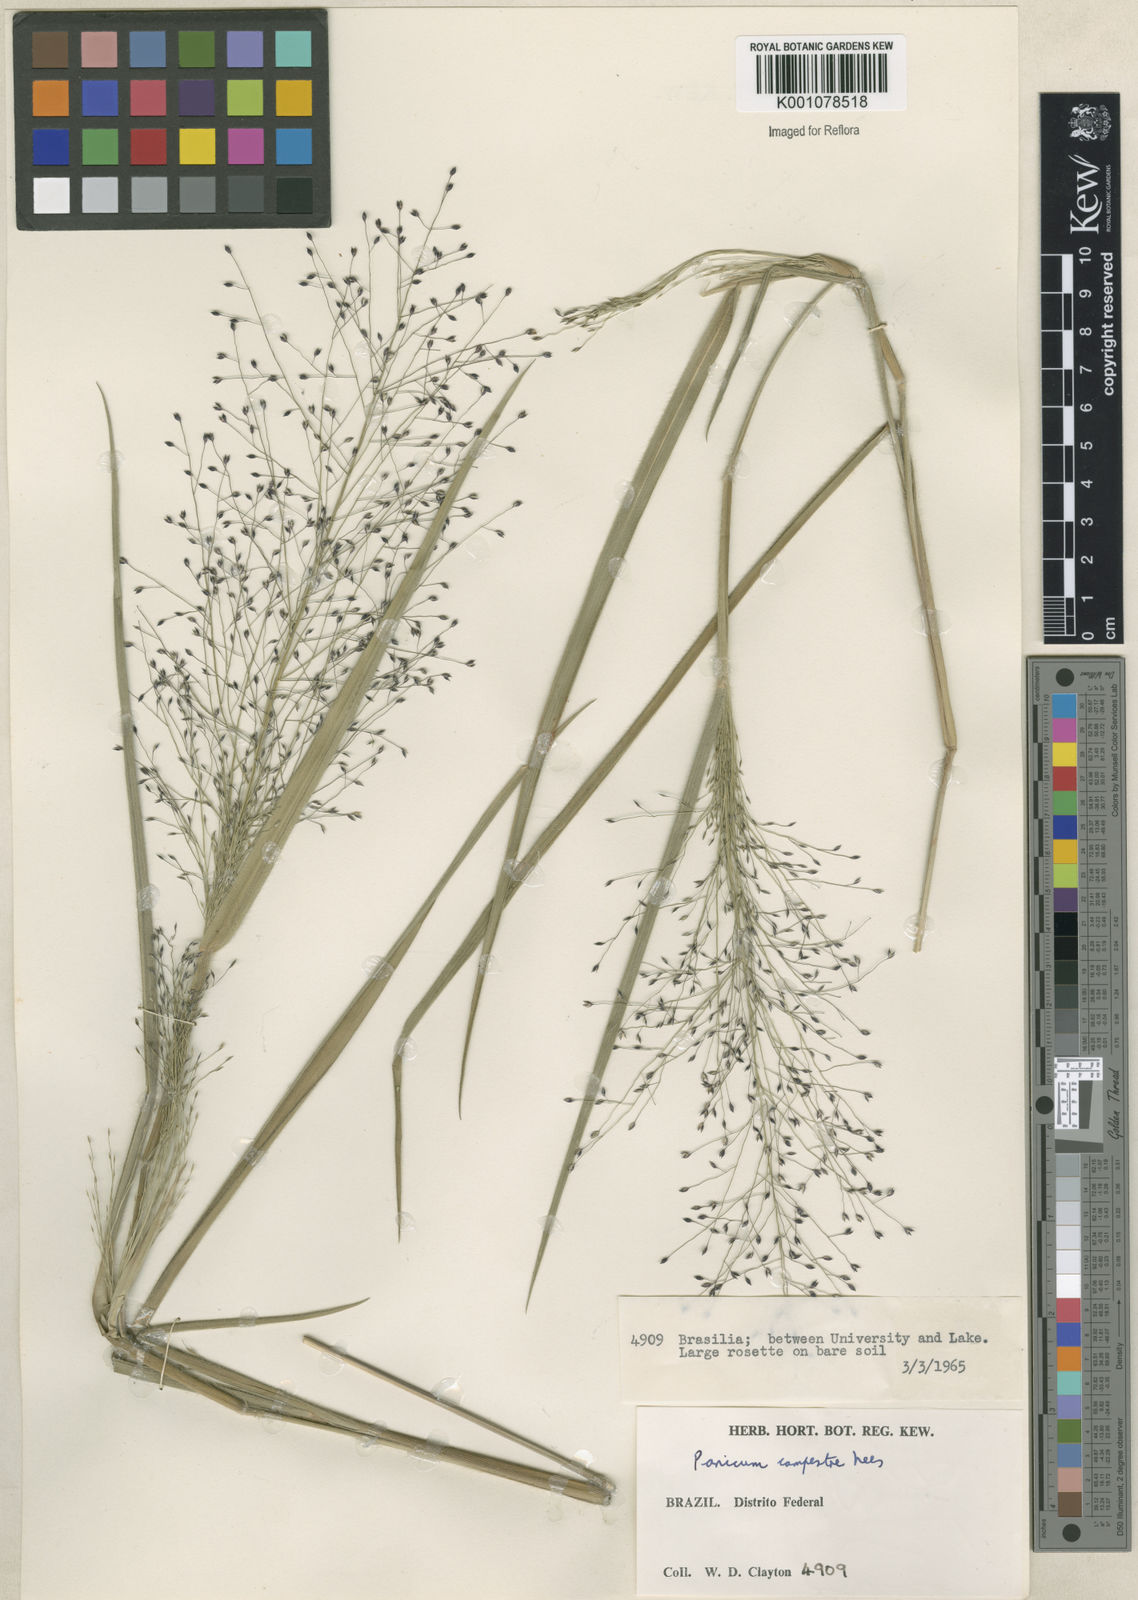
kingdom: Plantae
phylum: Tracheophyta
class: Liliopsida
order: Poales
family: Poaceae
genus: Panicum
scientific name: Panicum campestre
